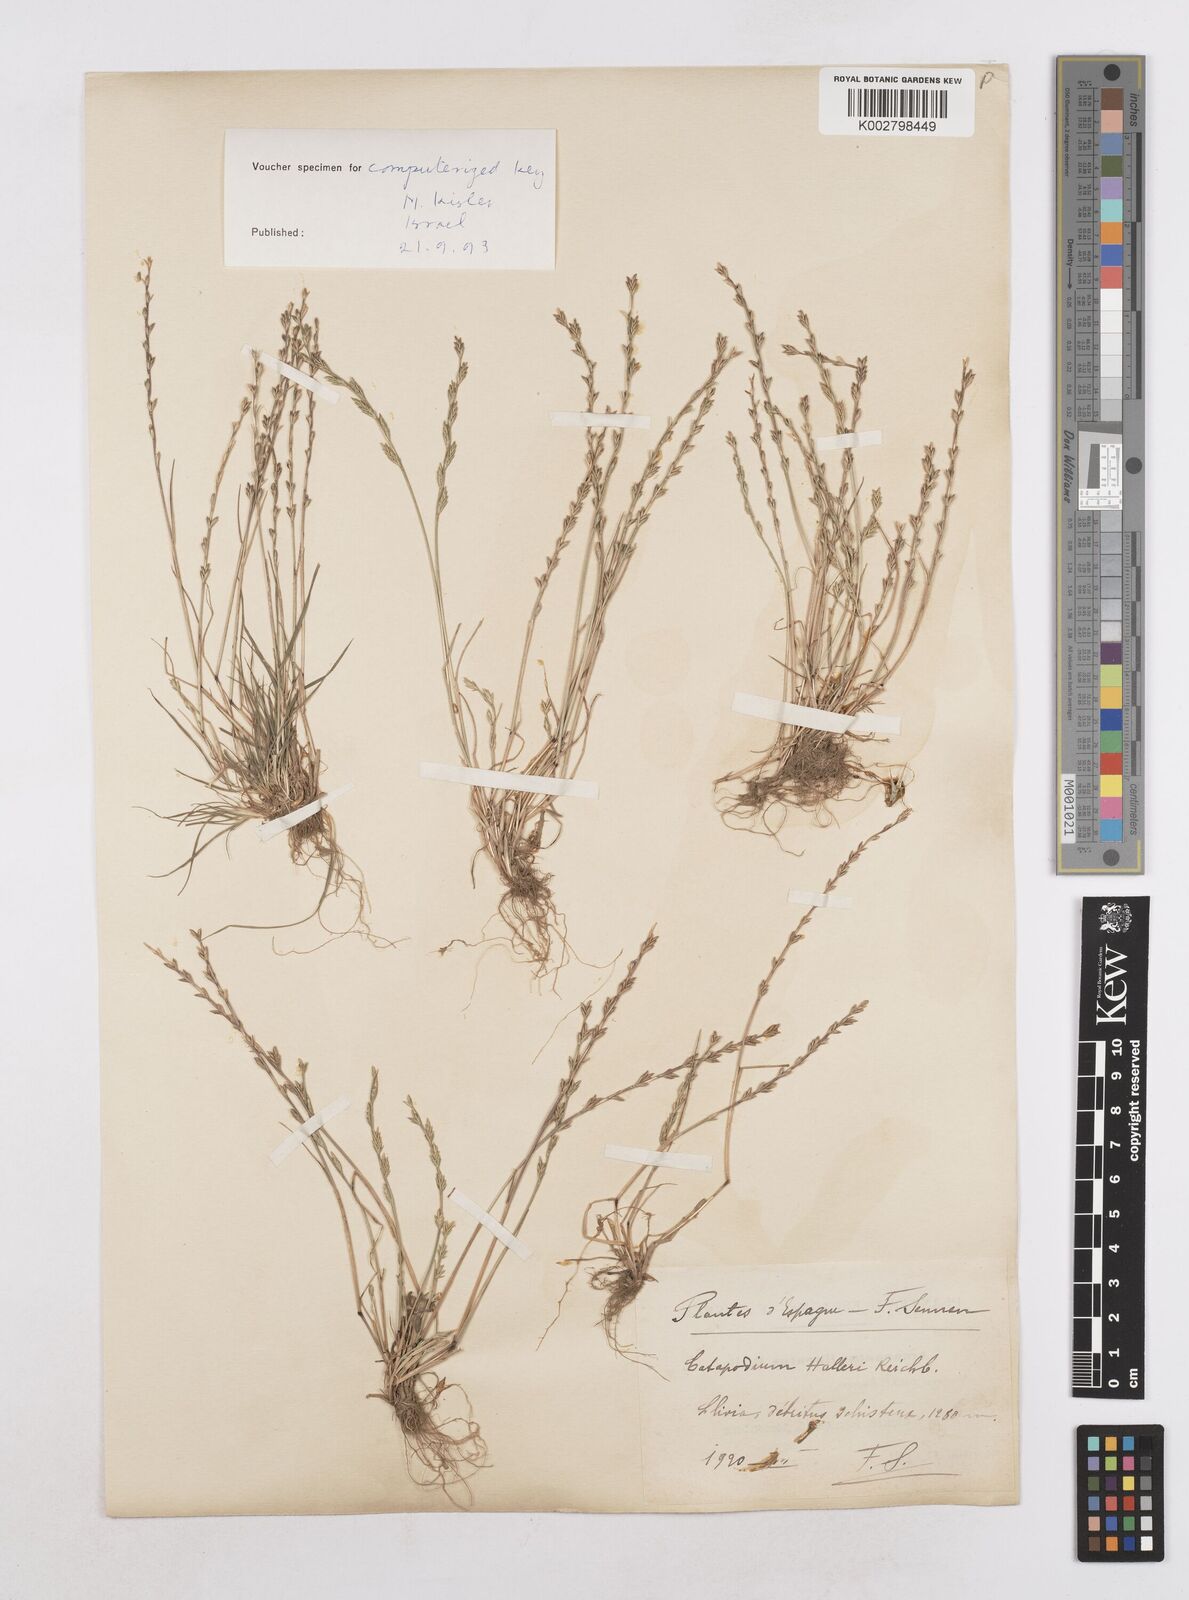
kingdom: Plantae
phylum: Tracheophyta
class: Liliopsida
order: Poales
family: Poaceae
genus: Festuca
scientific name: Festuca lachenalii
